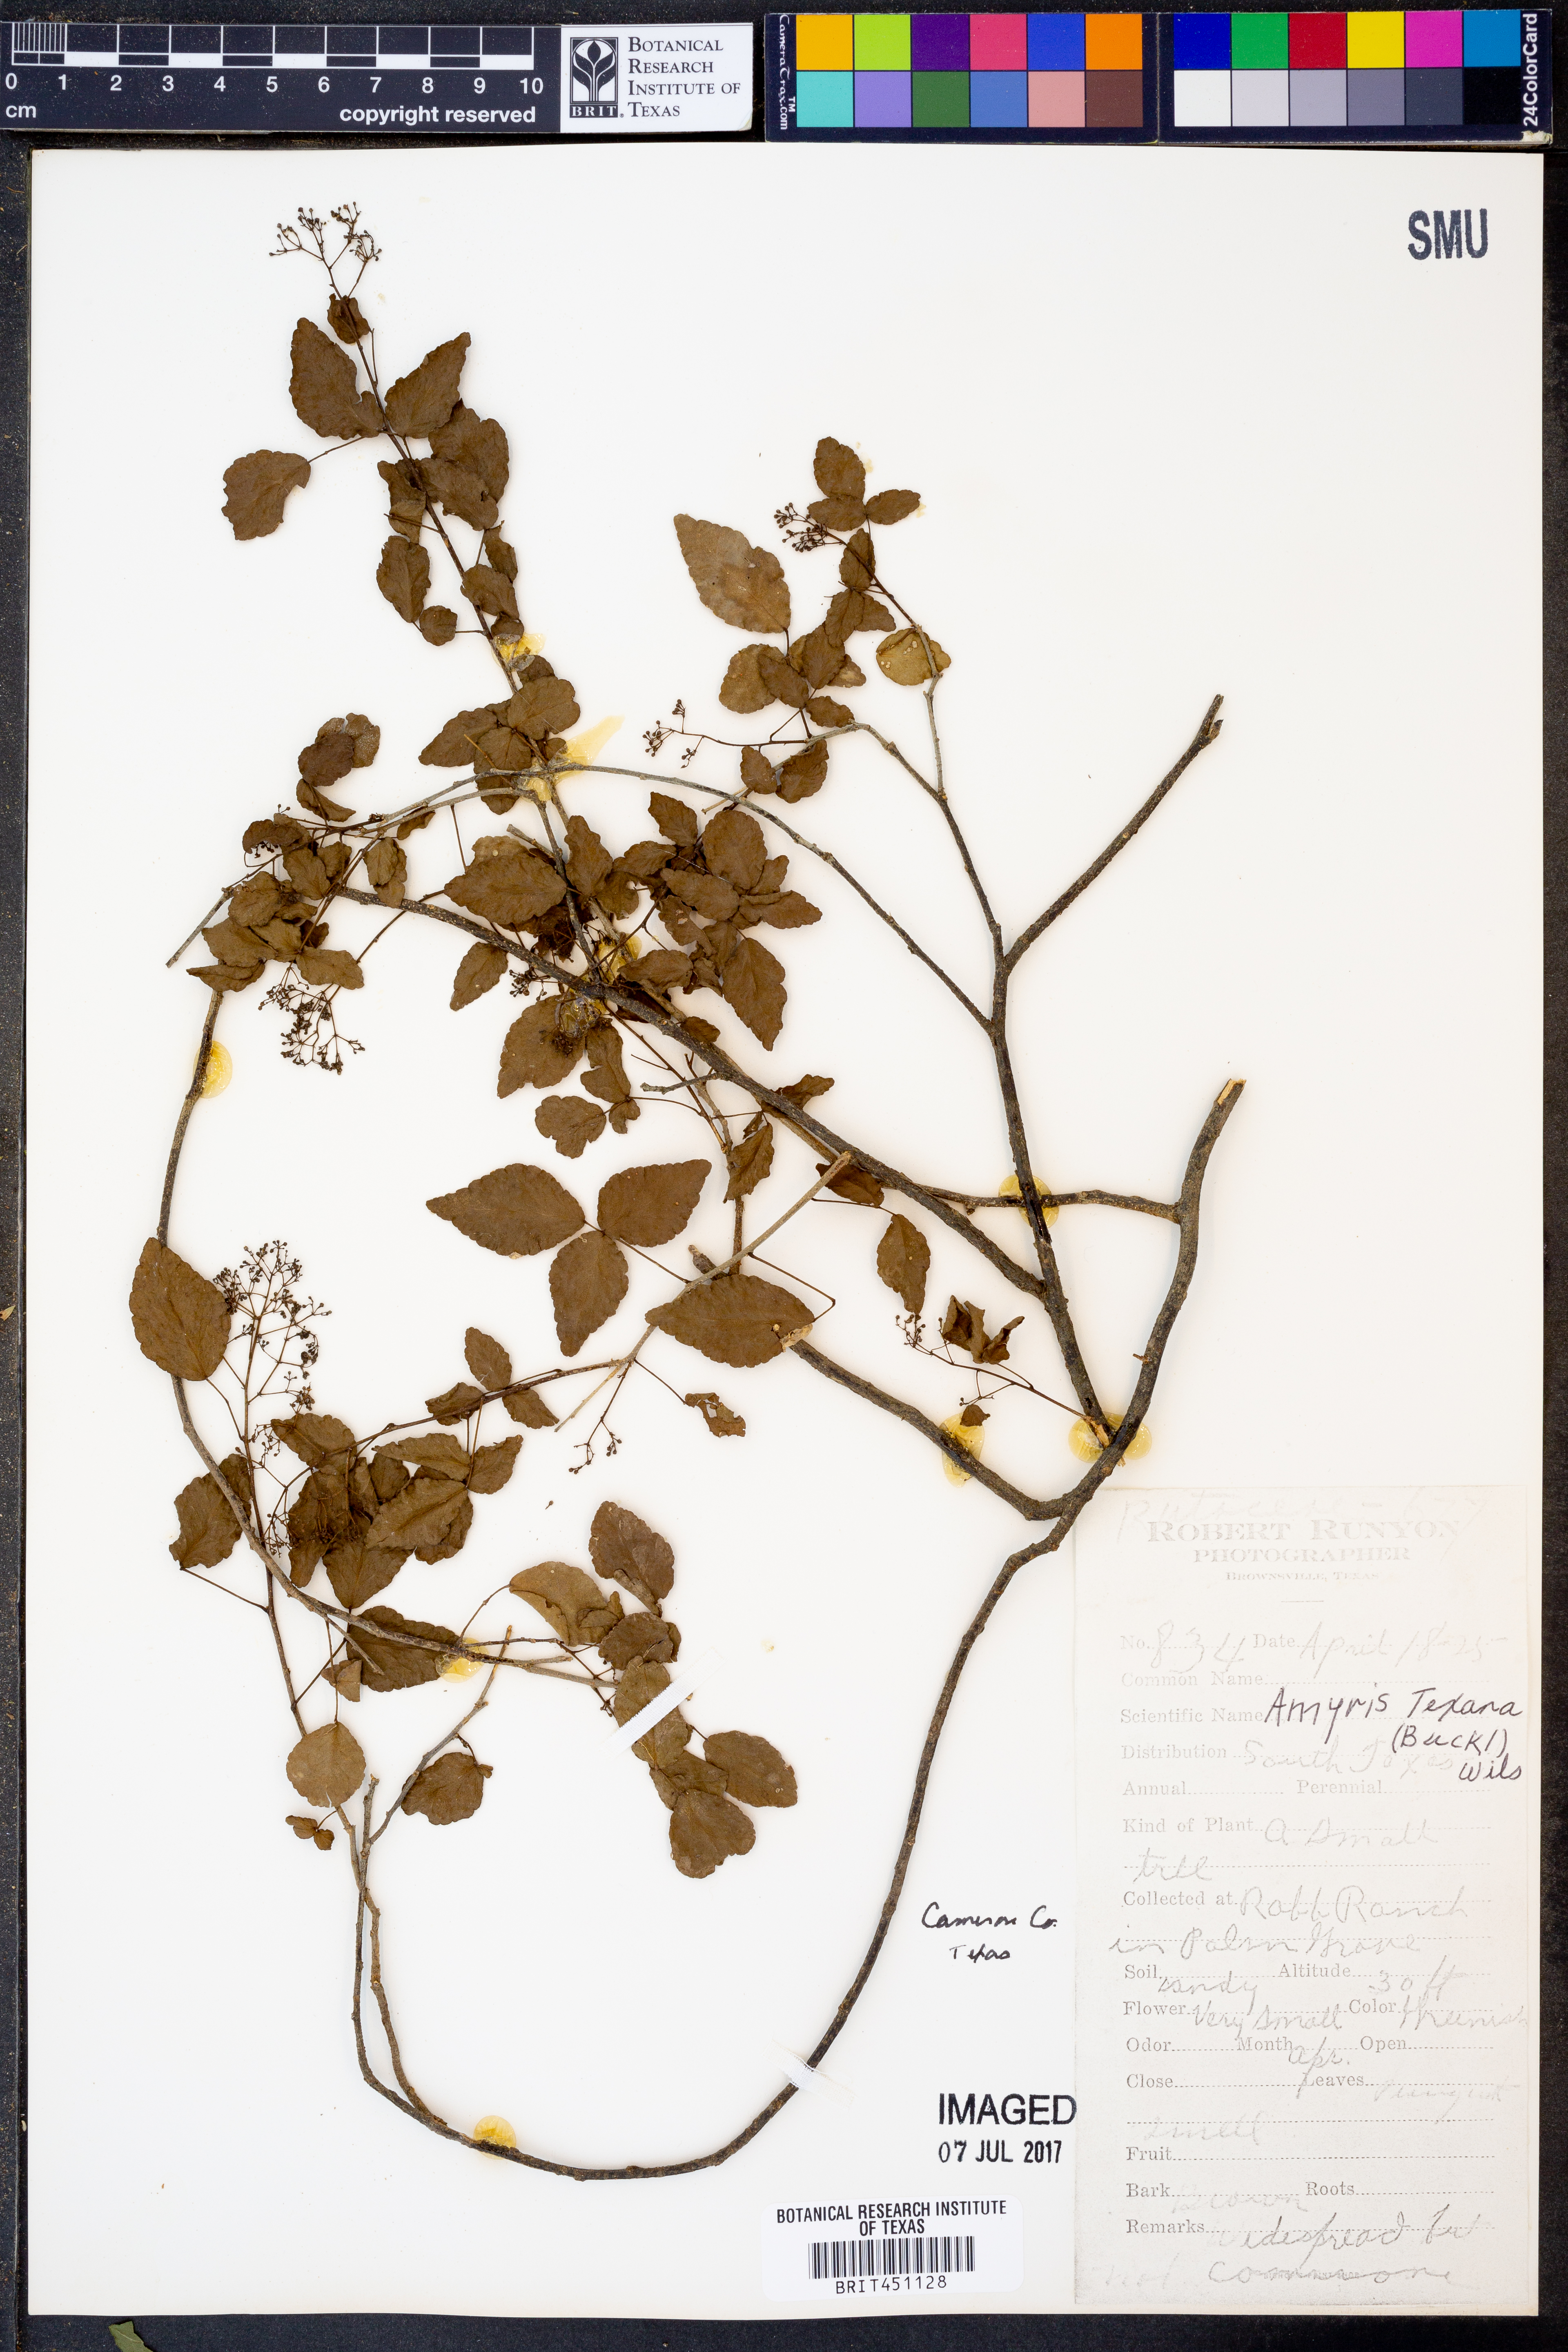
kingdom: Plantae
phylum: Tracheophyta
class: Magnoliopsida
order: Sapindales
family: Rutaceae
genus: Amyris
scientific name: Amyris texana
